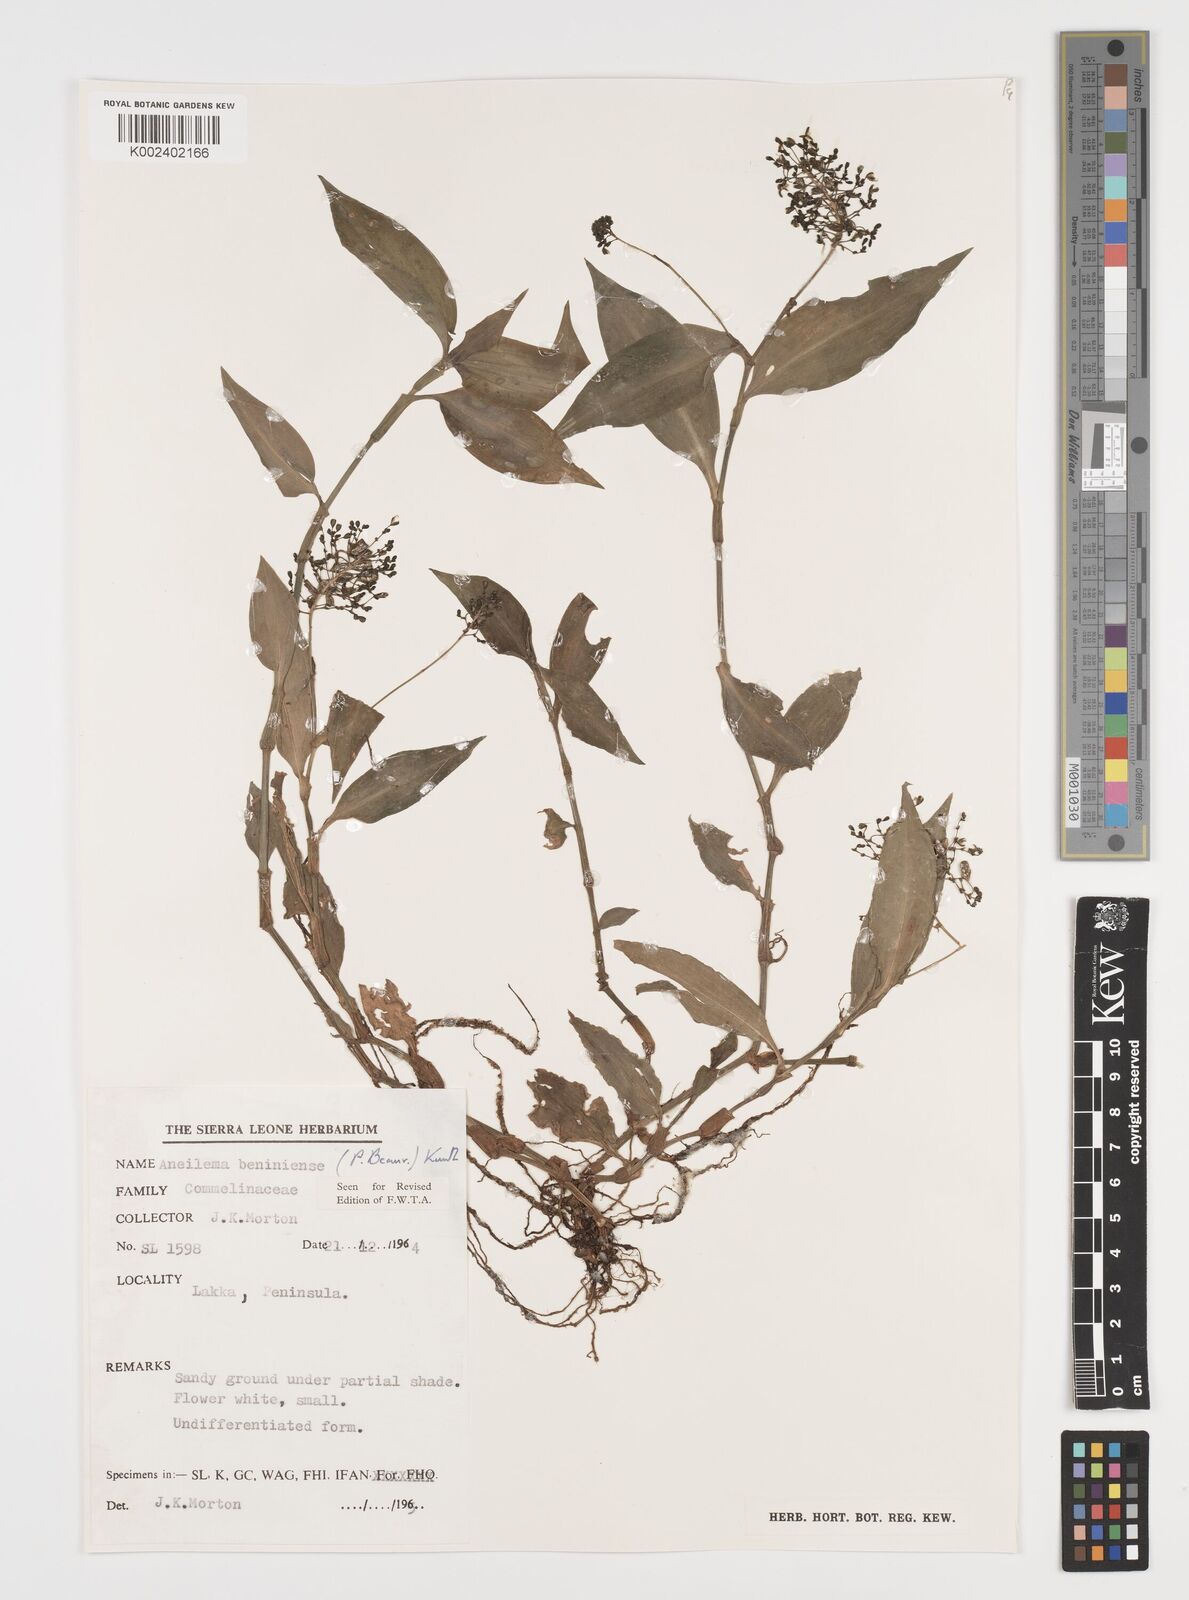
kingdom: Plantae
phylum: Tracheophyta
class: Liliopsida
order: Commelinales
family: Commelinaceae
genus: Aneilema
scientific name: Aneilema beniniense
